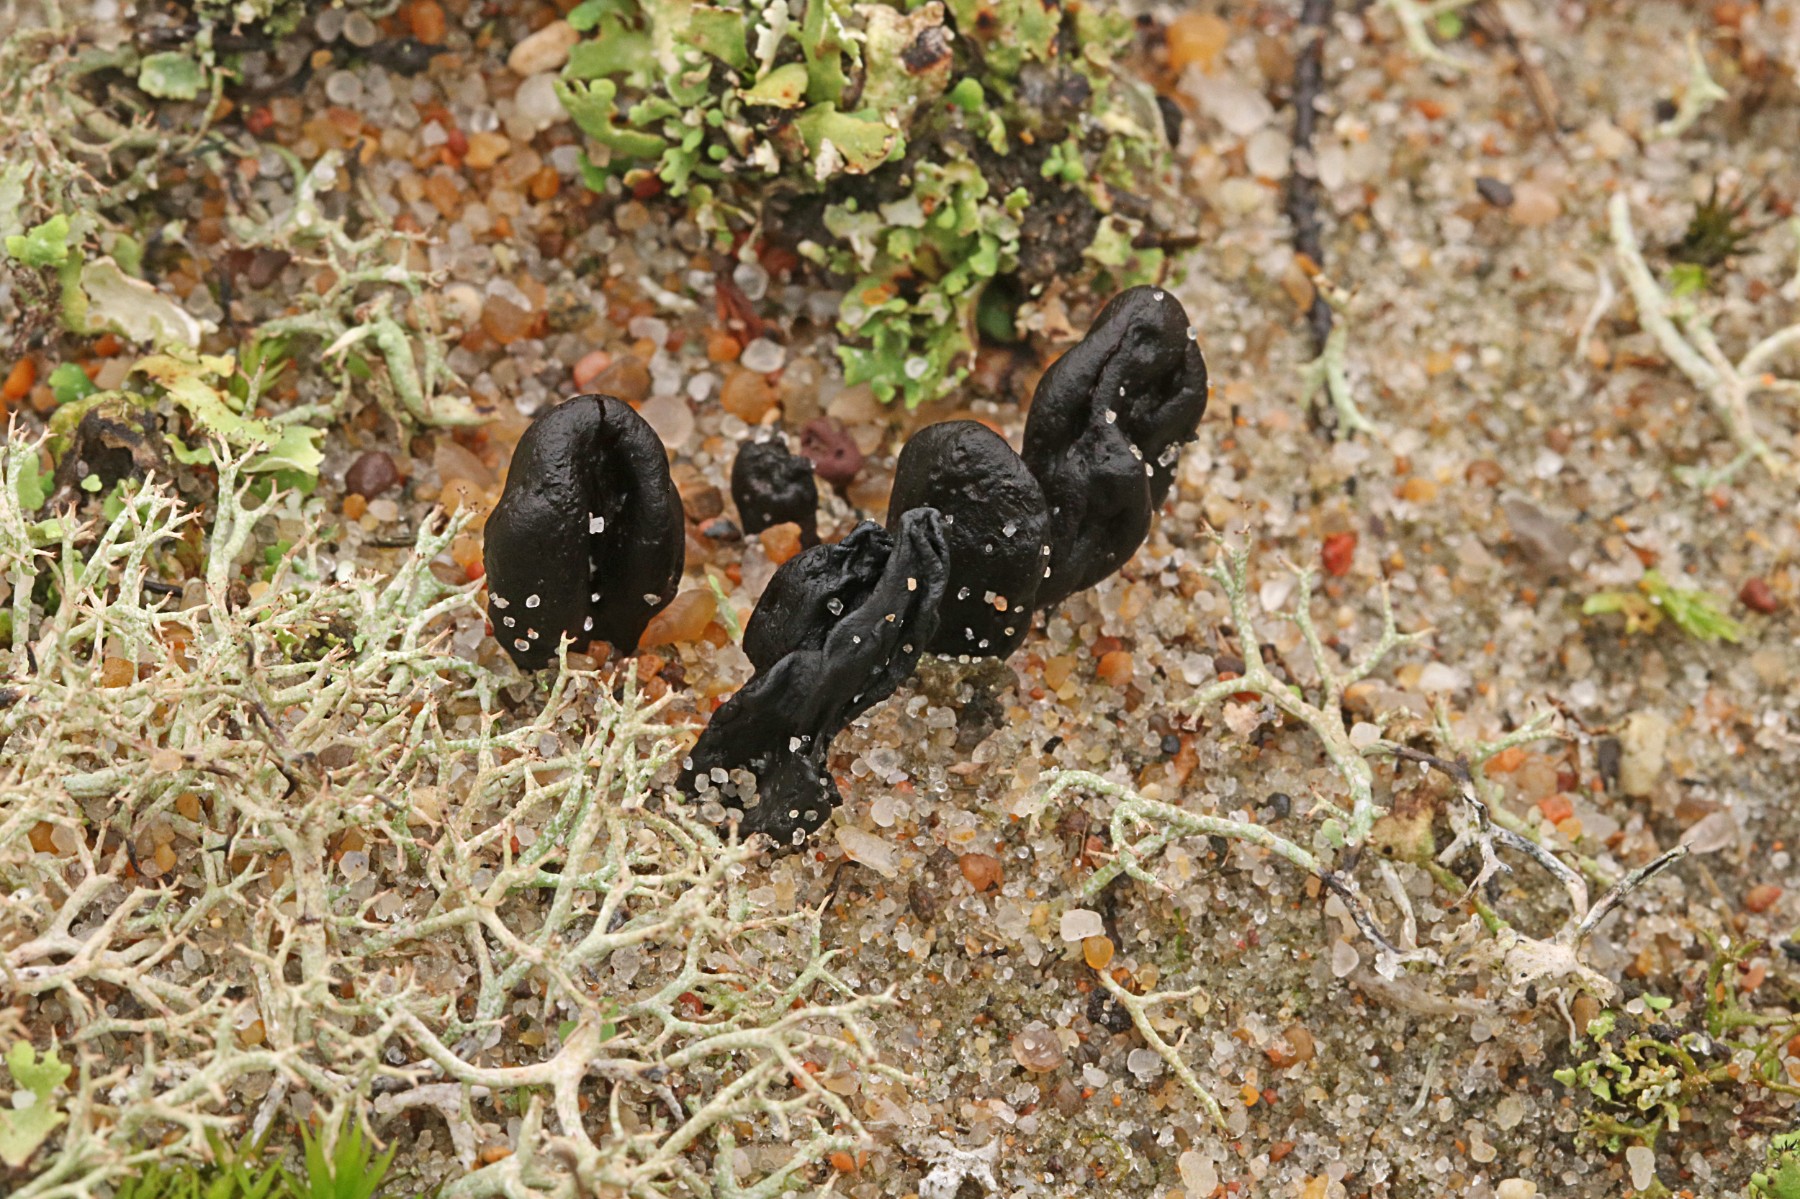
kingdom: Fungi
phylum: Ascomycota
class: Geoglossomycetes
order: Geoglossales
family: Geoglossaceae
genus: Sabuloglossum
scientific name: Sabuloglossum arenarium
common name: klit-jordtunge
